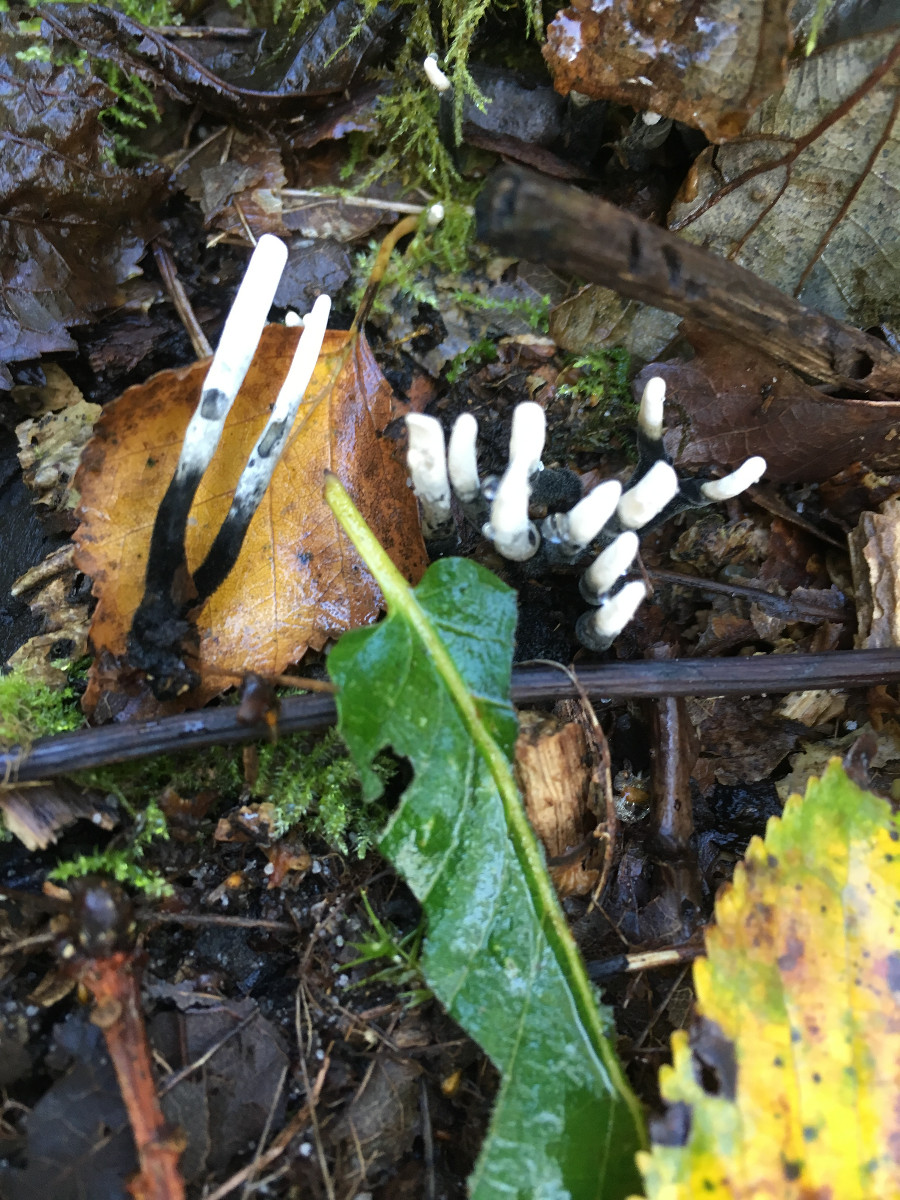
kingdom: Fungi
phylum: Ascomycota
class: Sordariomycetes
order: Xylariales
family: Xylariaceae
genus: Xylaria
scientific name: Xylaria hypoxylon
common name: grenet stødsvamp
